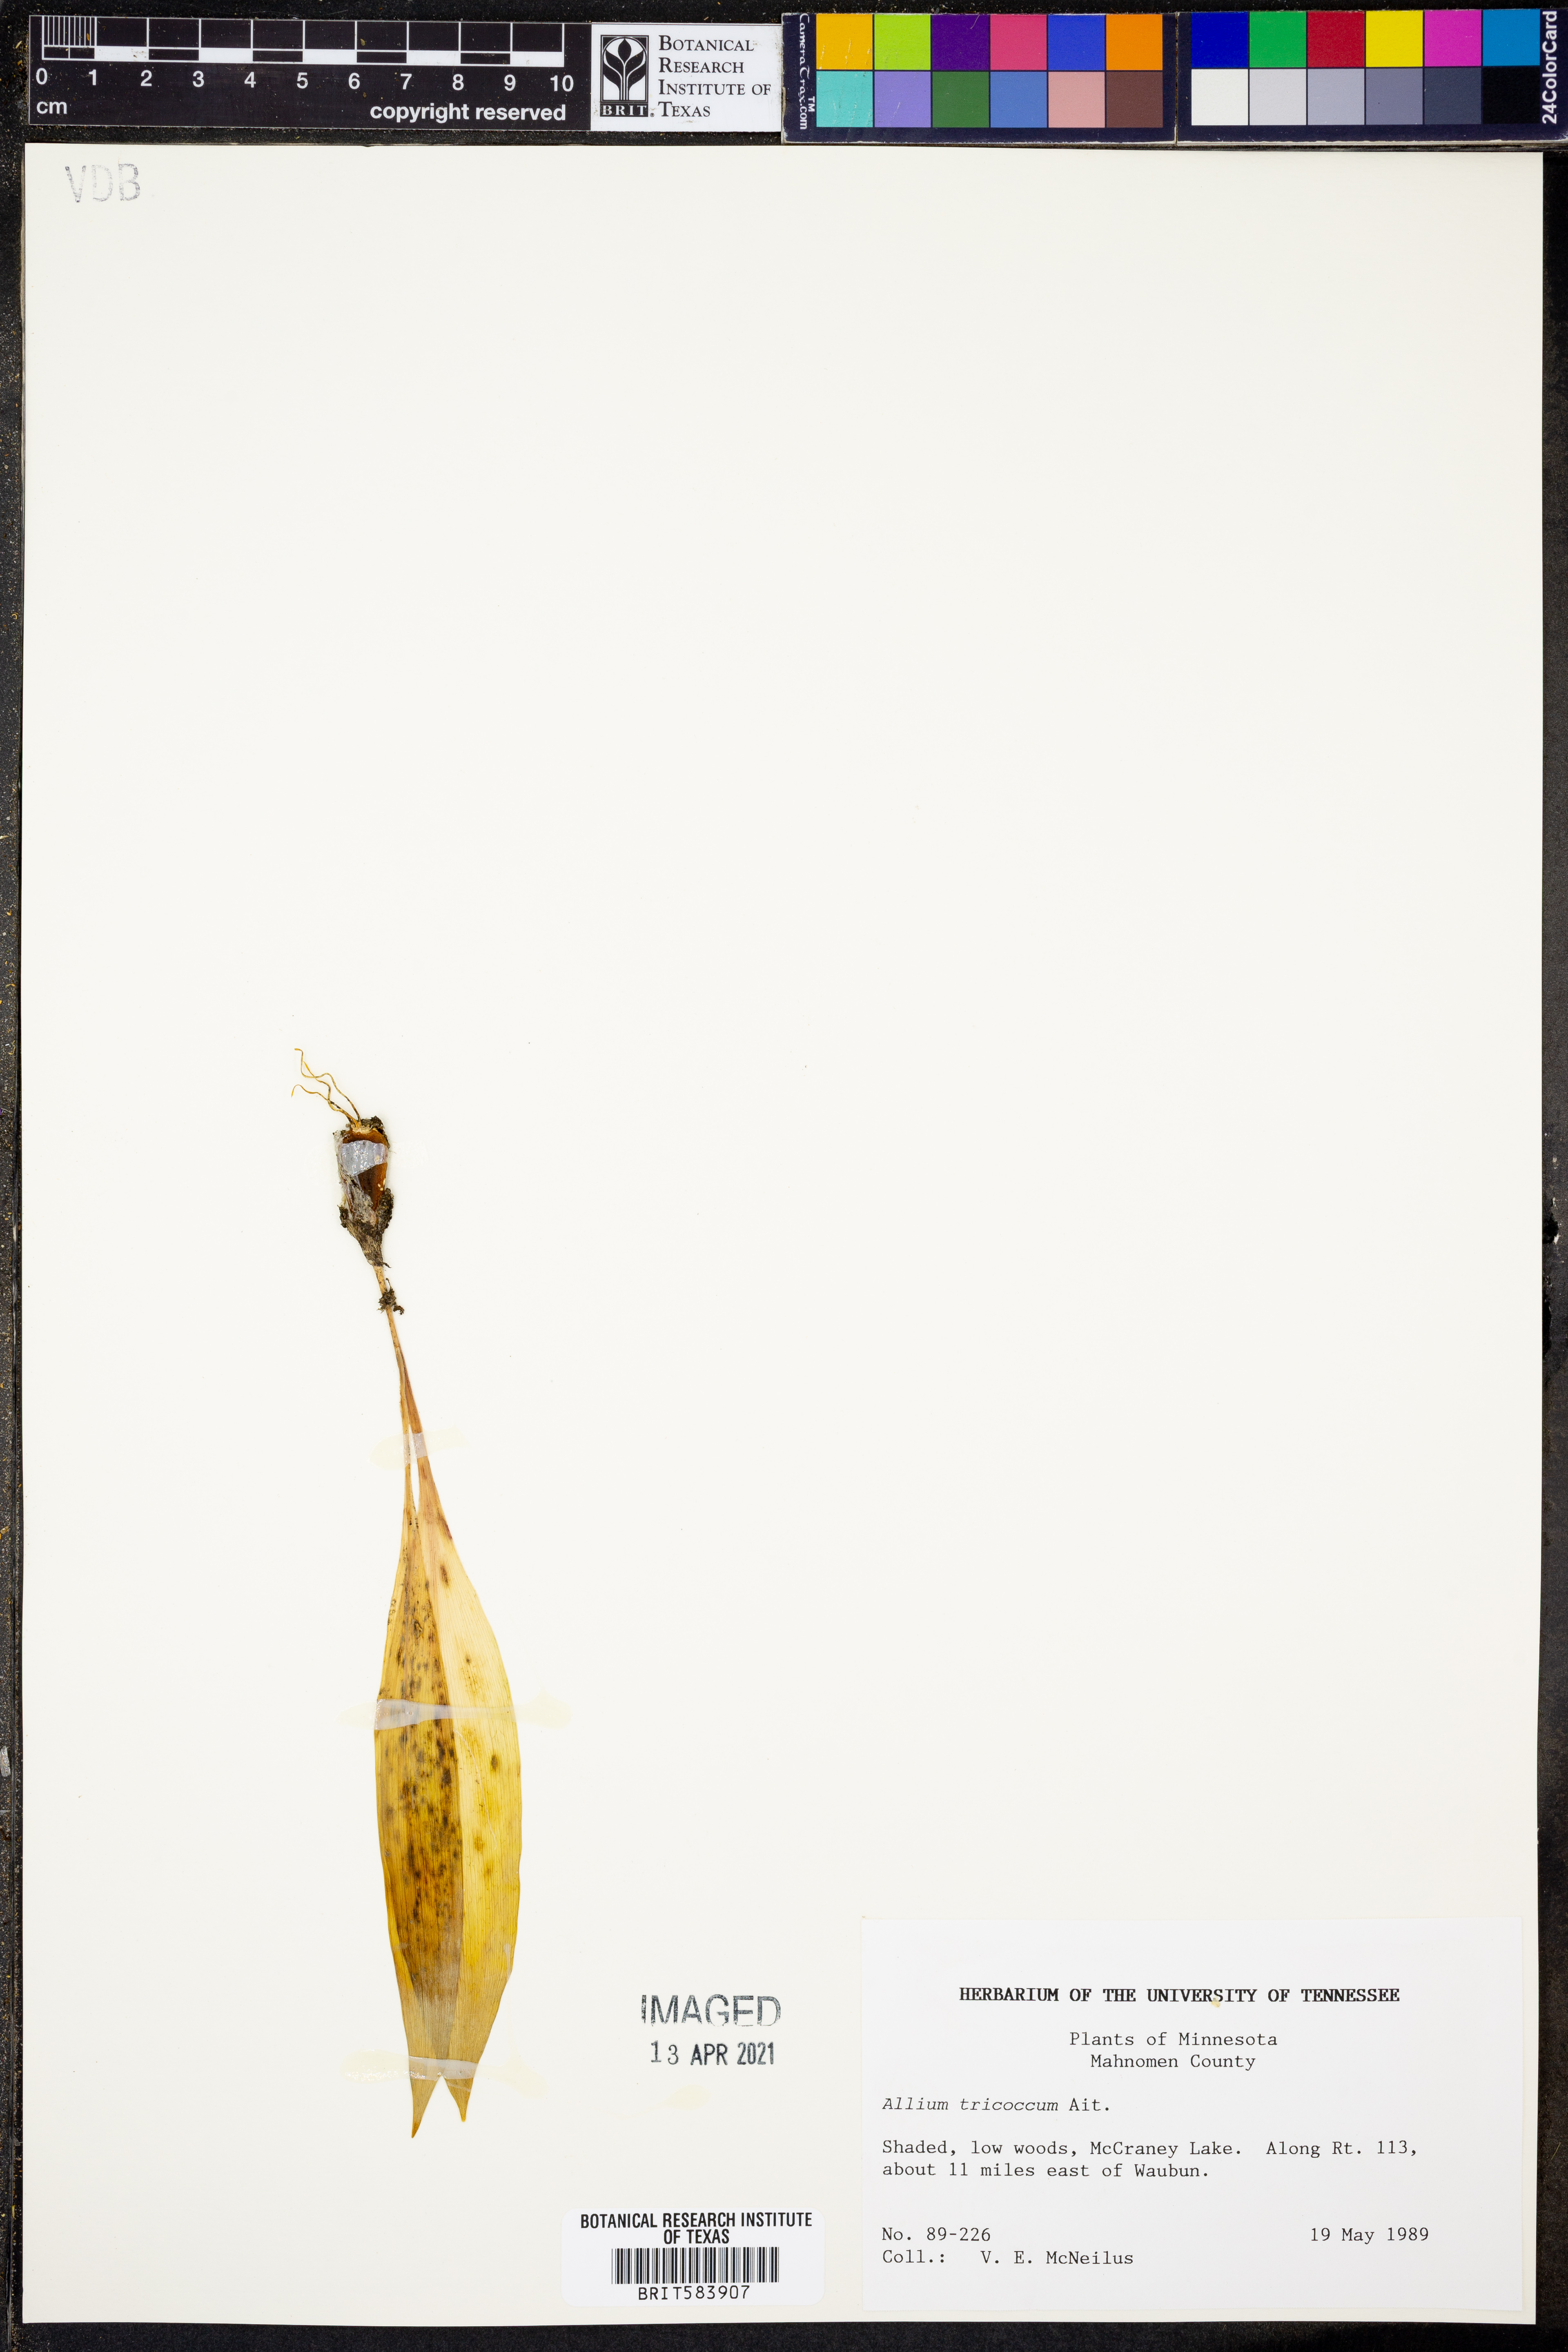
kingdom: Plantae
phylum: Tracheophyta
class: Liliopsida
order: Asparagales
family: Amaryllidaceae
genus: Allium
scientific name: Allium tricoccum
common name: Ramp
